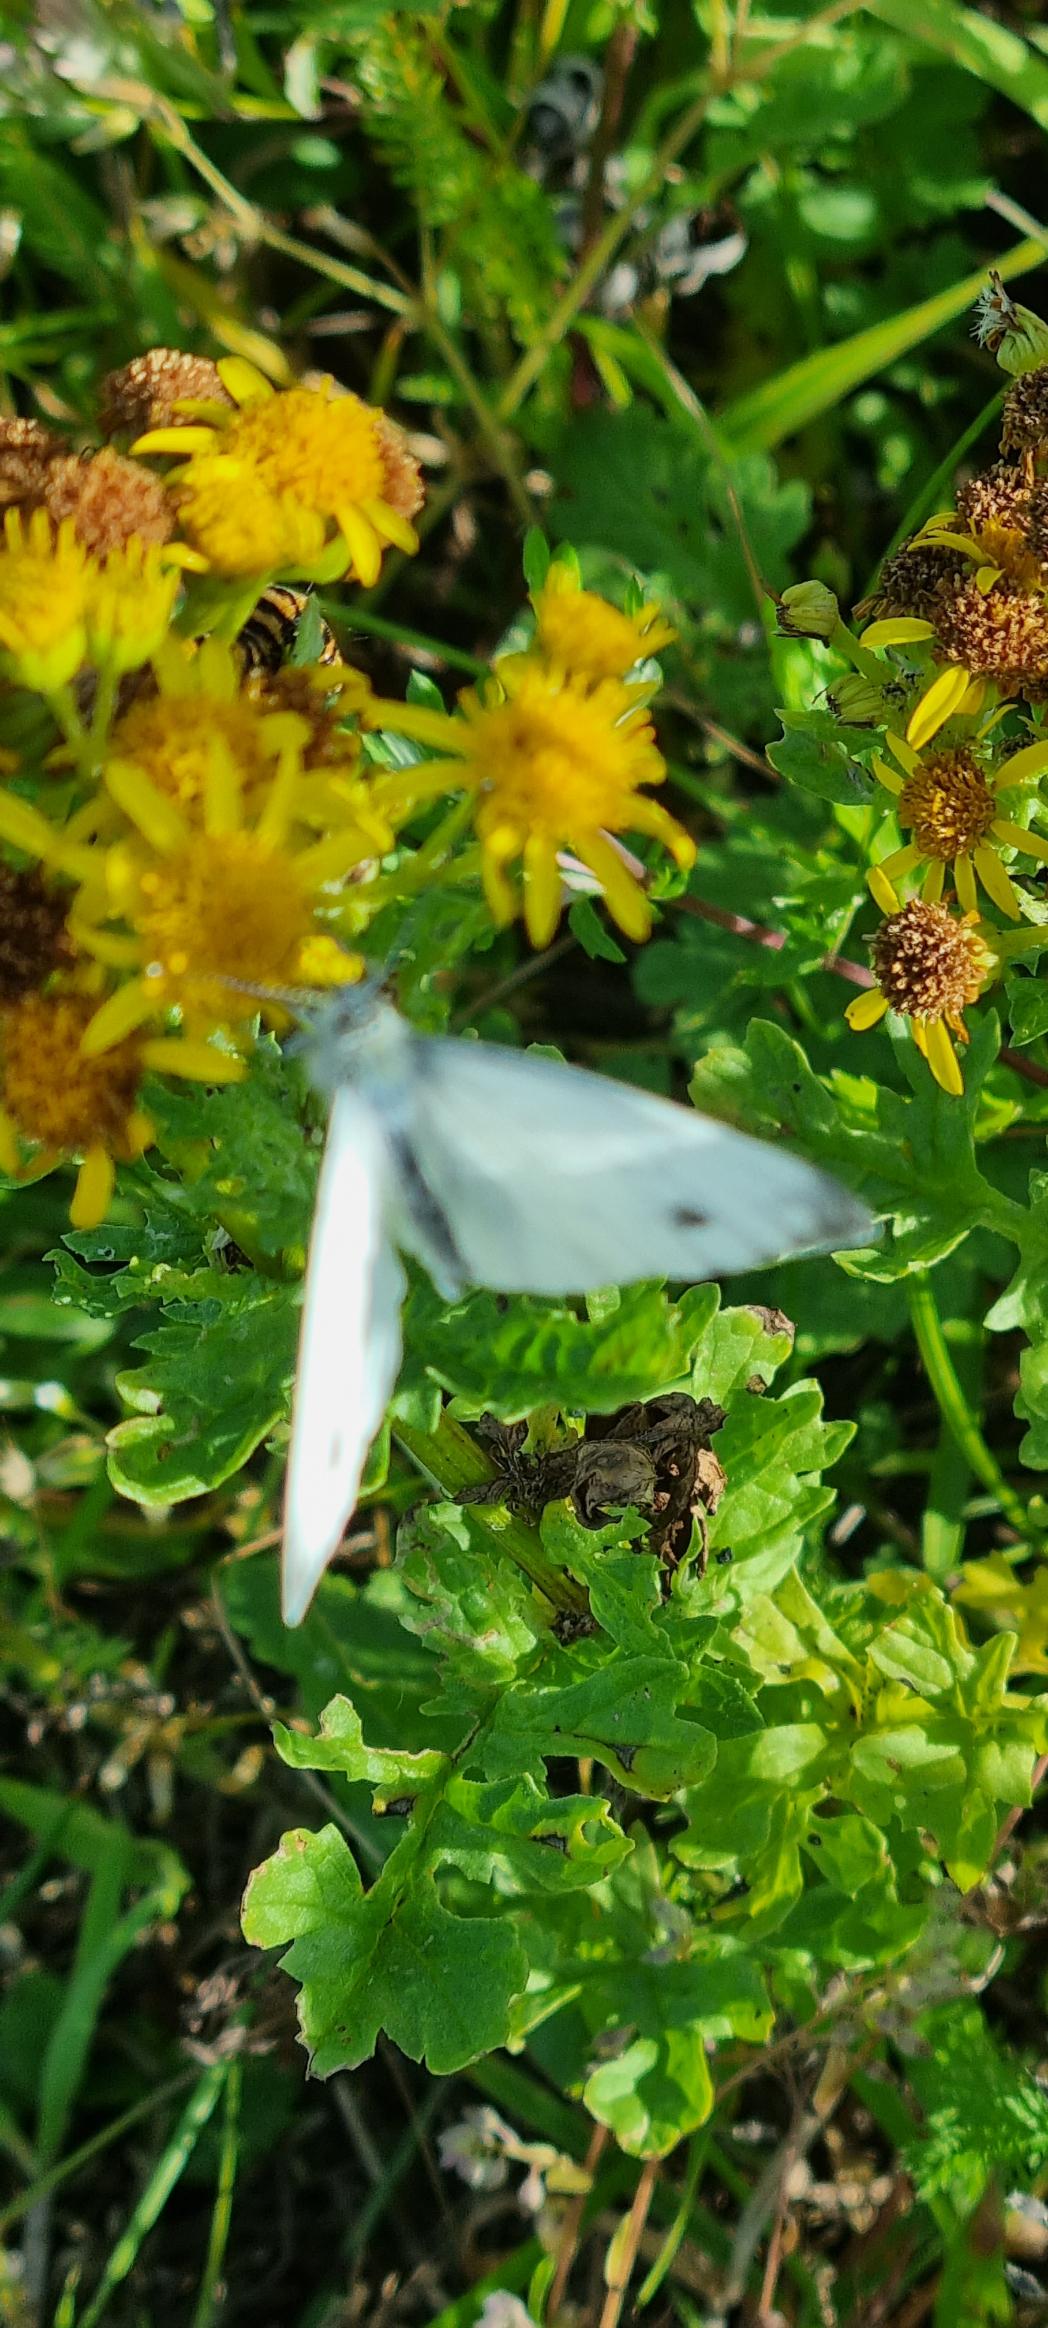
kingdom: Animalia
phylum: Arthropoda
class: Insecta
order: Lepidoptera
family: Pieridae
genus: Pieris
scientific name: Pieris napi
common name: Grønåret kålsommerfugl
